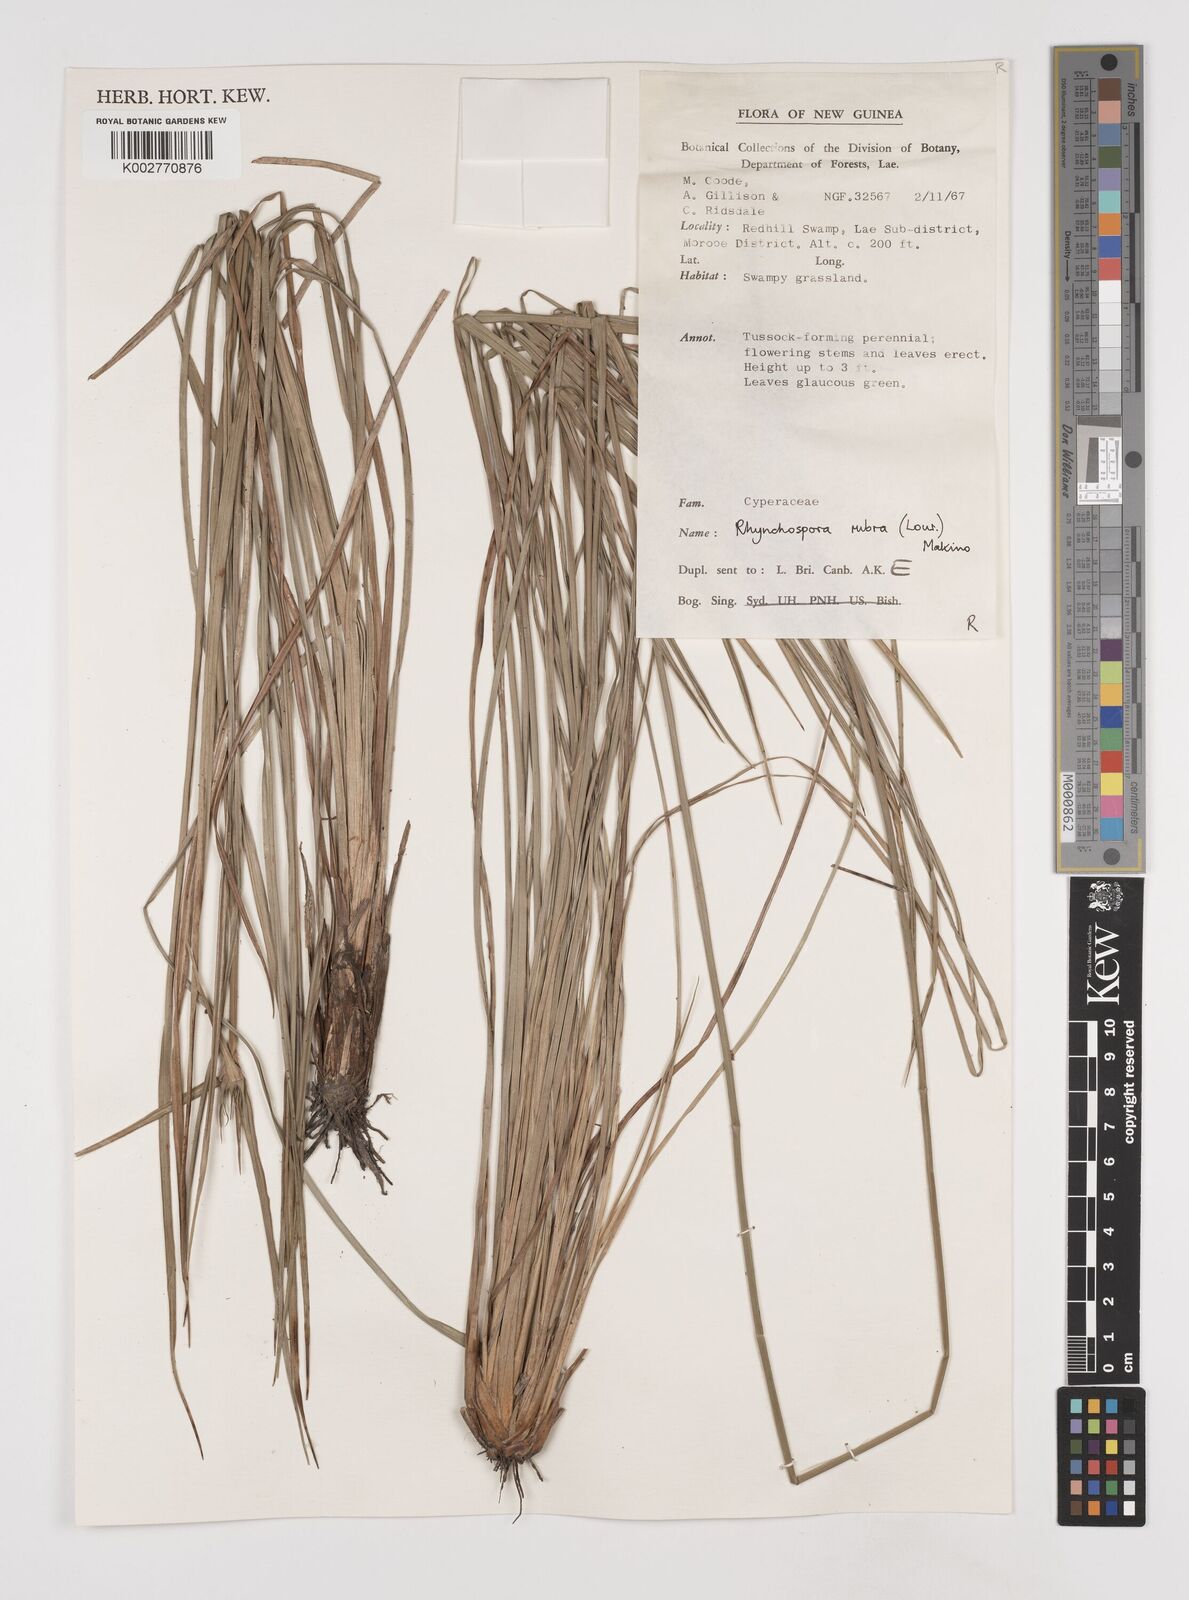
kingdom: Plantae
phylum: Tracheophyta
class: Liliopsida
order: Poales
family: Cyperaceae
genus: Rhynchospora
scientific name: Rhynchospora rubra
